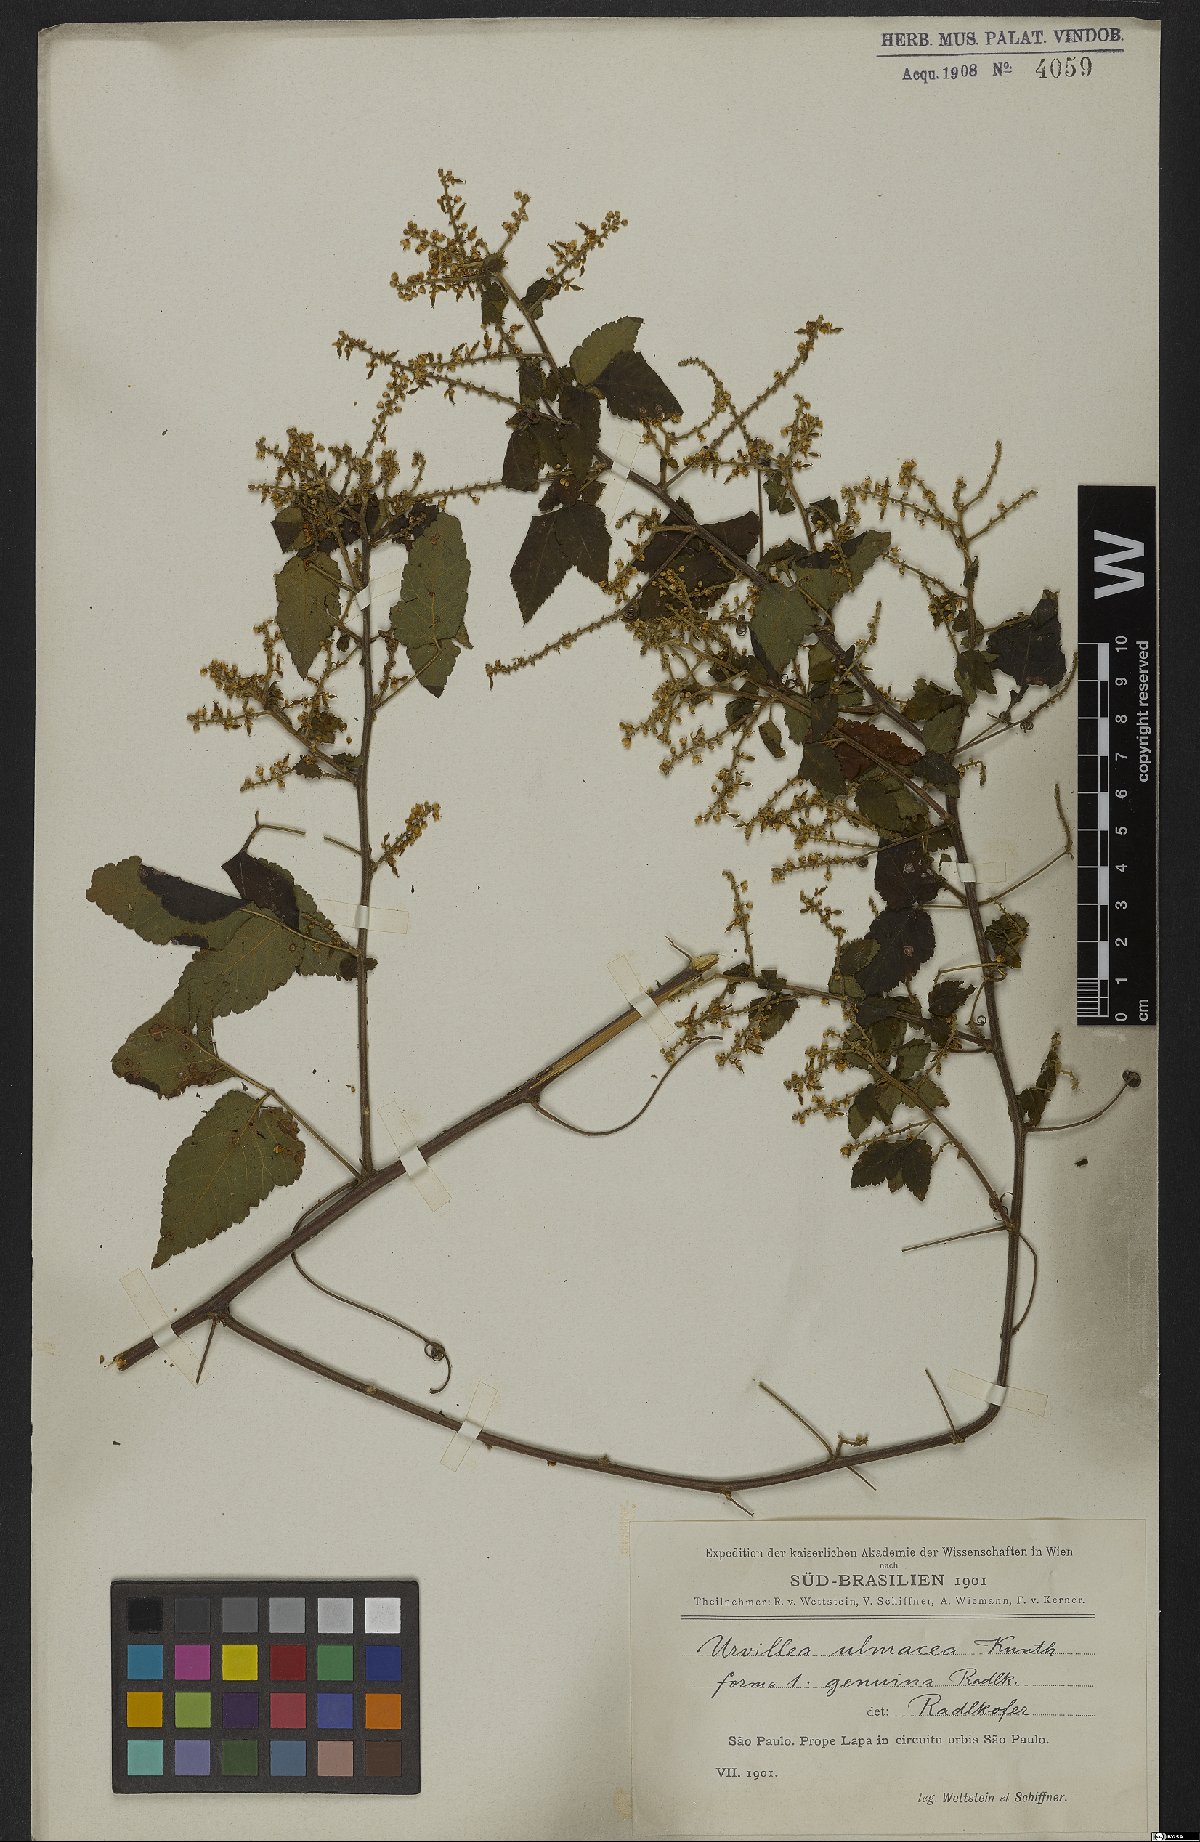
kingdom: Plantae
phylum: Tracheophyta
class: Magnoliopsida
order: Sapindales
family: Sapindaceae
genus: Urvillea
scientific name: Urvillea ulmacea
